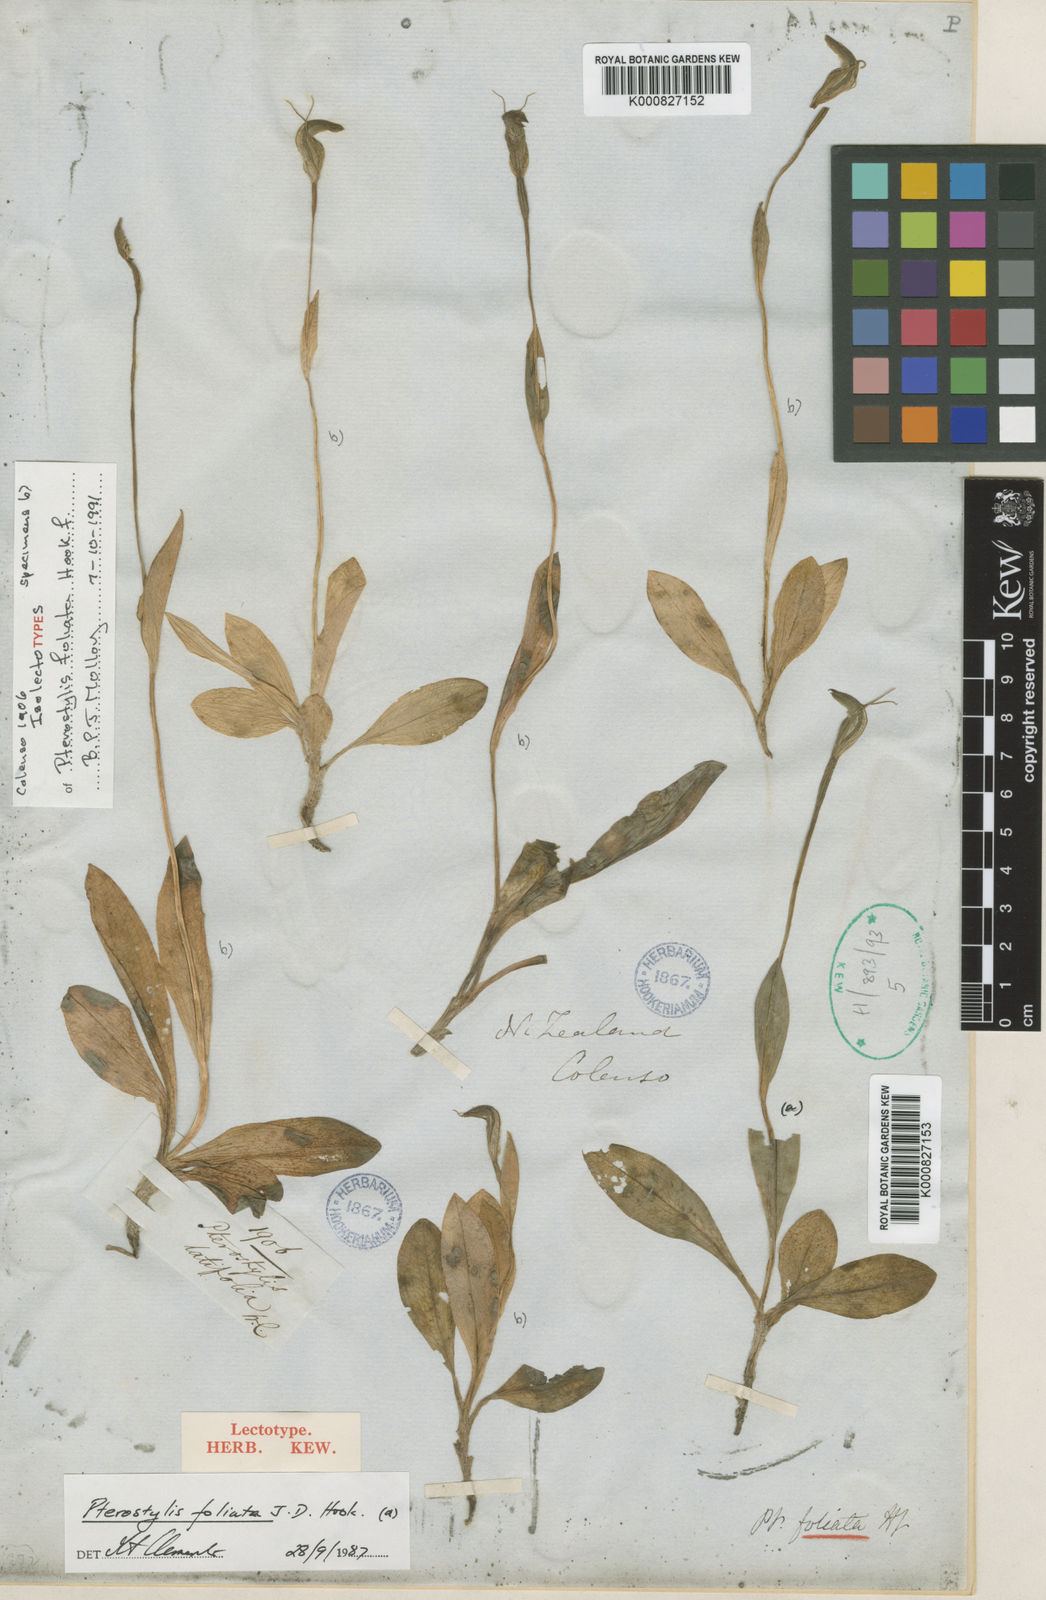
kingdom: Plantae
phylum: Tracheophyta
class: Liliopsida
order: Asparagales
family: Orchidaceae
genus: Pterostylis
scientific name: Pterostylis venosa
